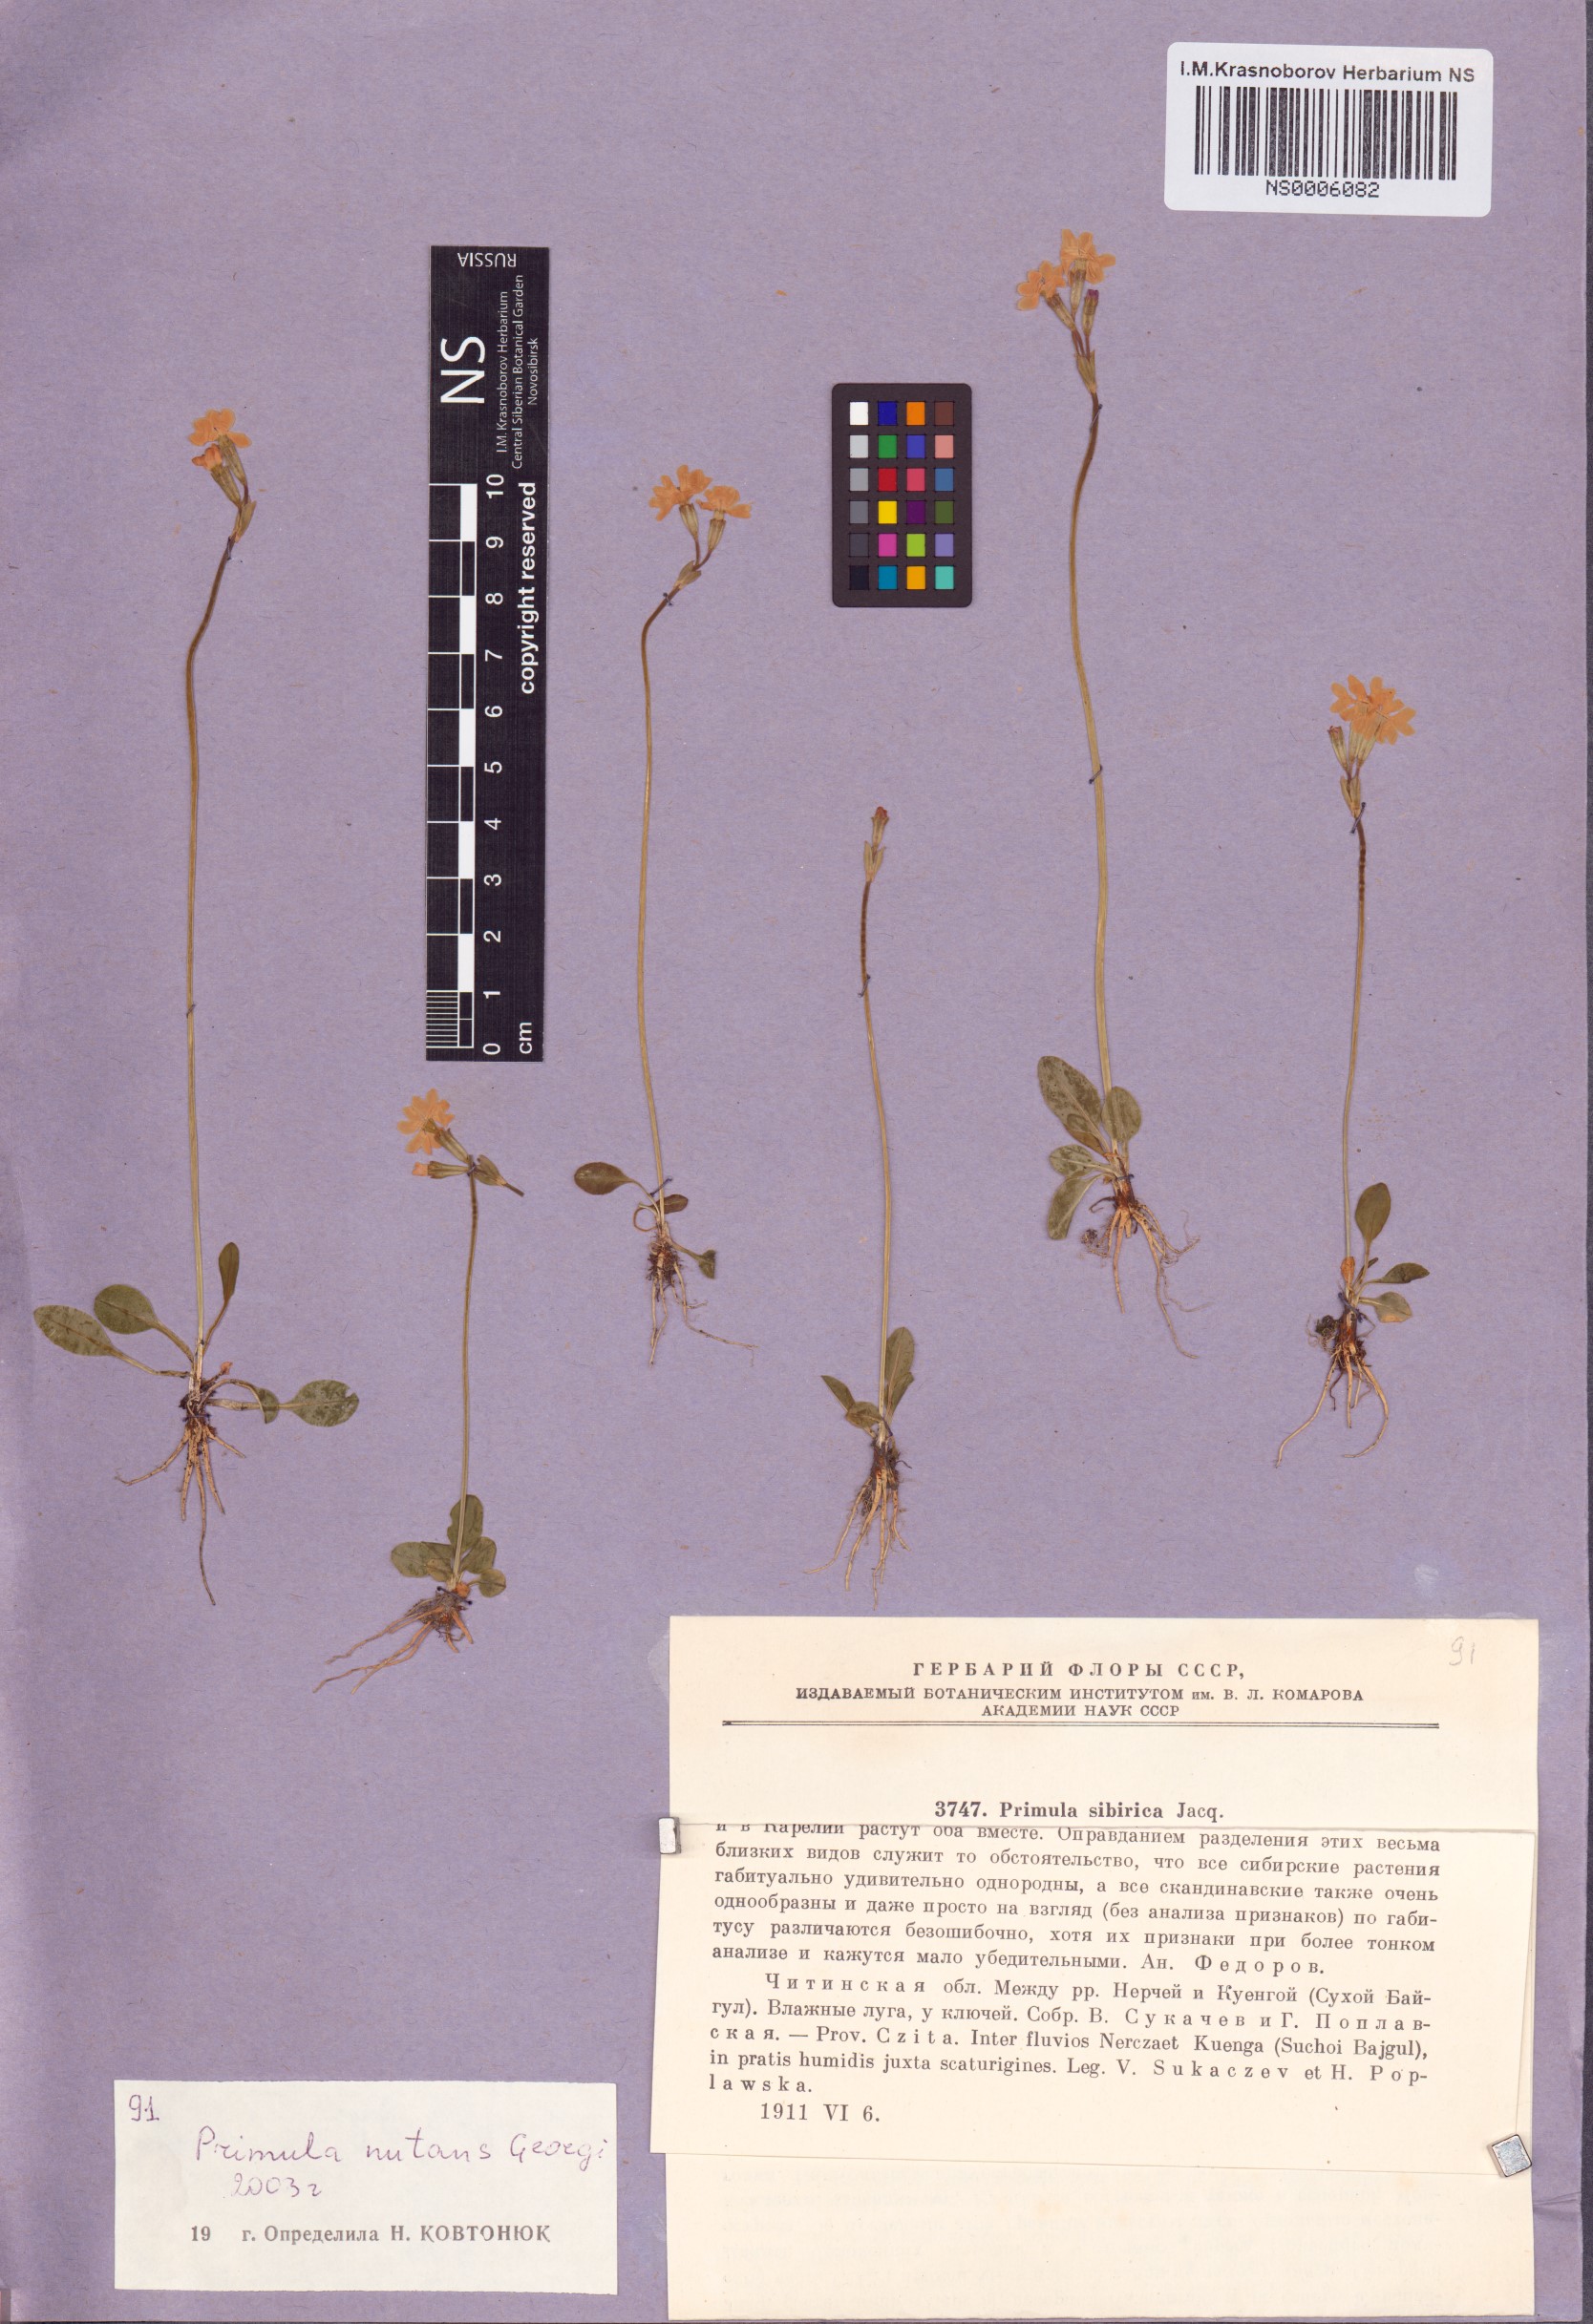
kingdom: Plantae
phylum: Tracheophyta
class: Magnoliopsida
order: Ericales
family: Primulaceae
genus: Primula
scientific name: Primula nutans
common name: Siberian primrose
